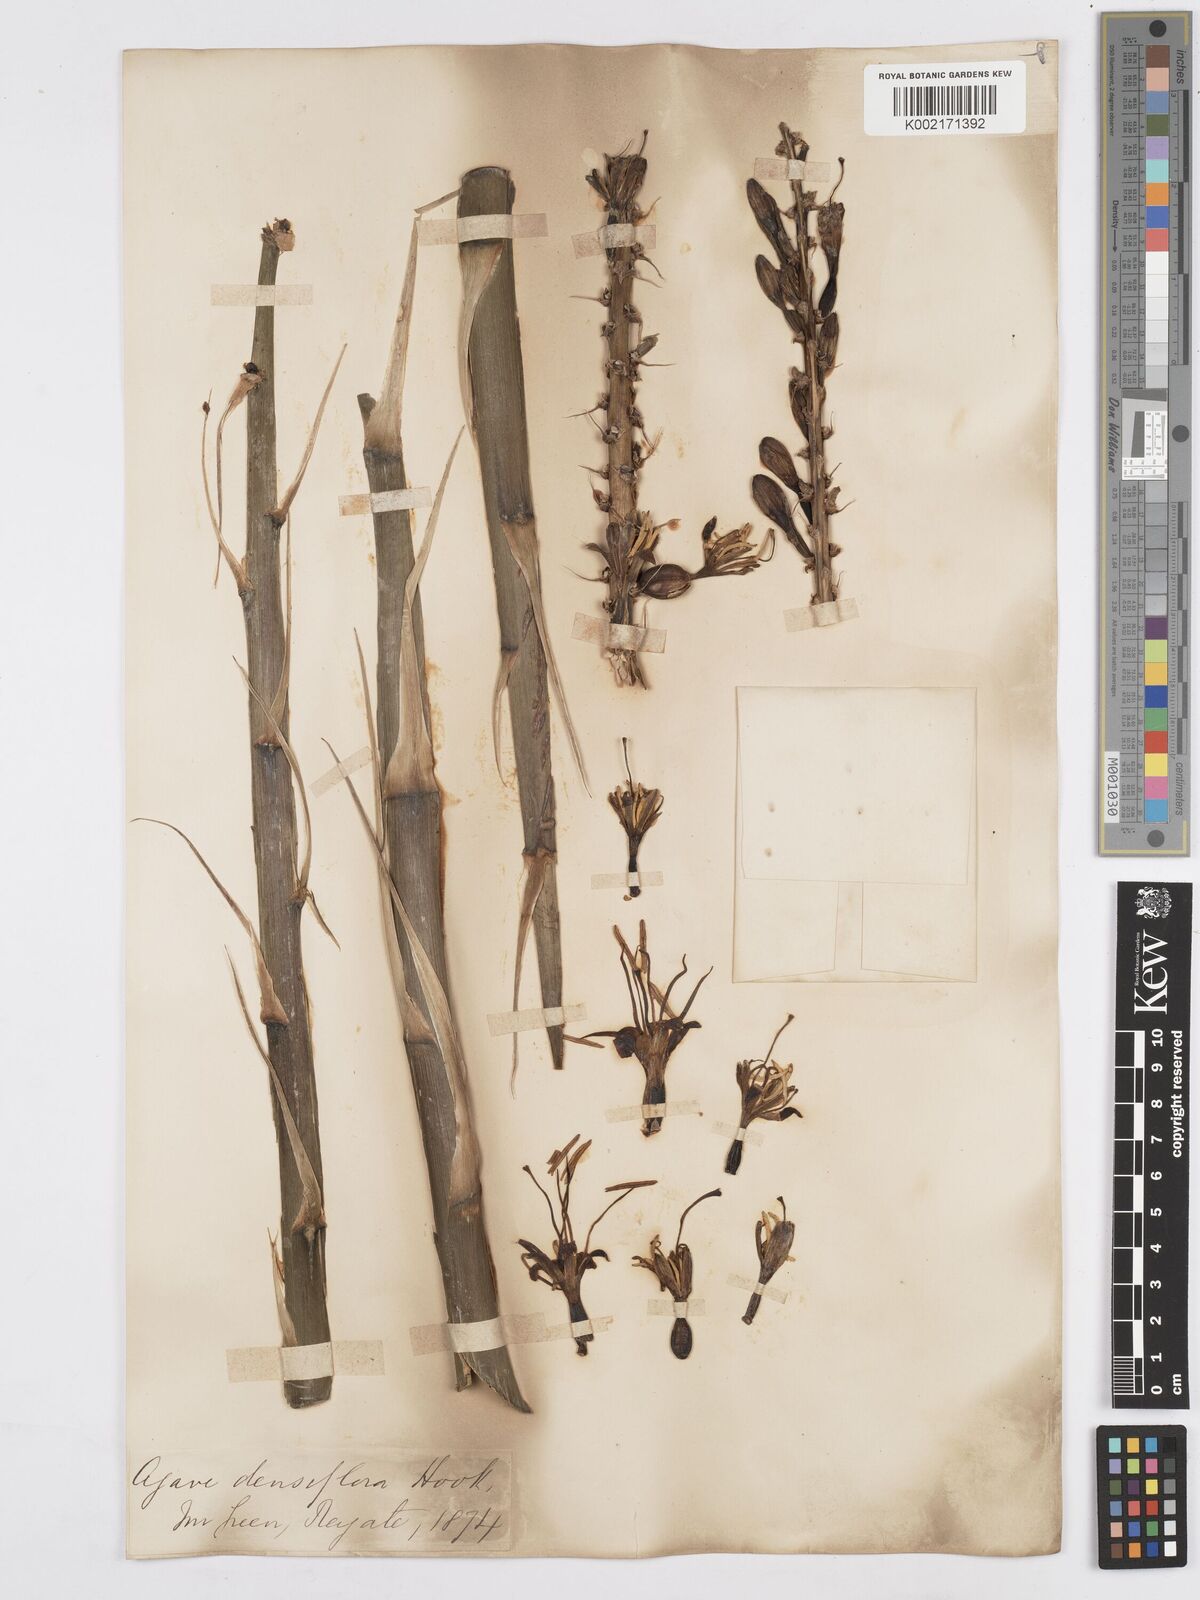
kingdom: Plantae
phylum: Tracheophyta
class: Liliopsida
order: Asparagales
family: Asparagaceae
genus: Agave
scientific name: Agave polyacantha
